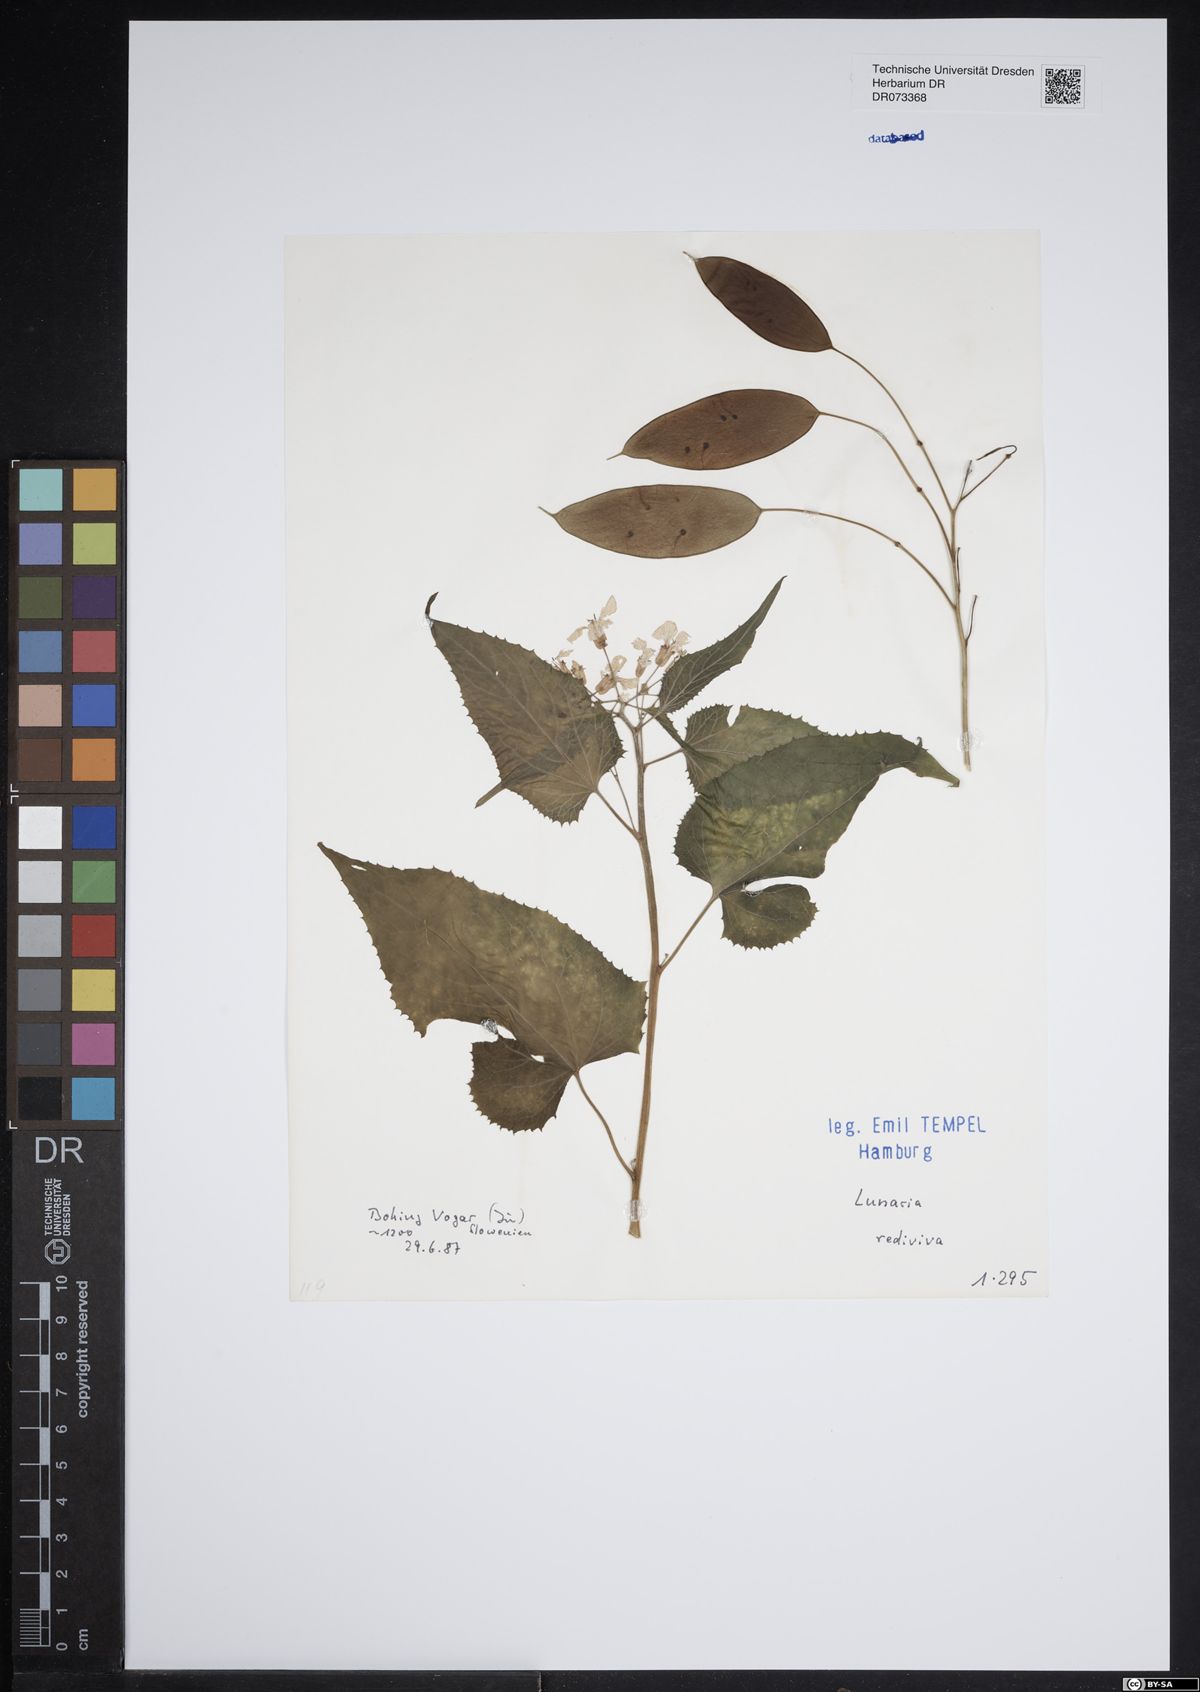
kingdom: Plantae
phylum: Tracheophyta
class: Magnoliopsida
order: Brassicales
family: Brassicaceae
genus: Lunaria
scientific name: Lunaria rediviva
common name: Perennial honesty
